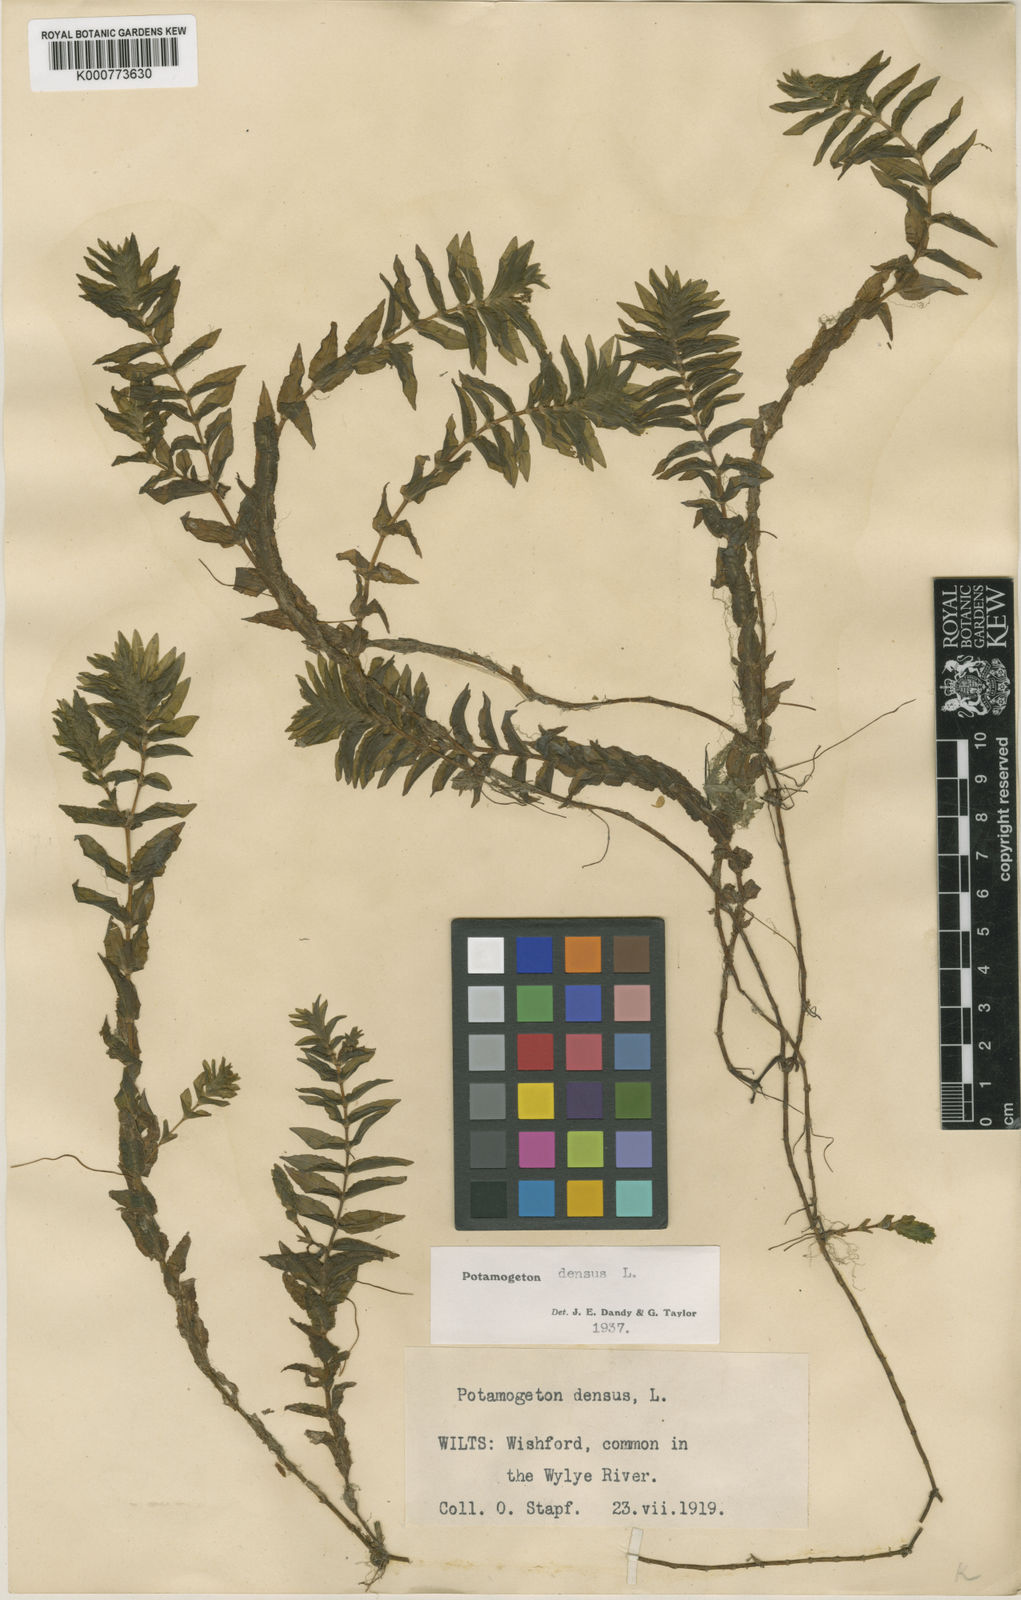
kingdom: Plantae
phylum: Tracheophyta
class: Liliopsida
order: Alismatales
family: Potamogetonaceae
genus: Groenlandia
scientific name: Groenlandia densa
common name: Opposite-leaved pondweed
